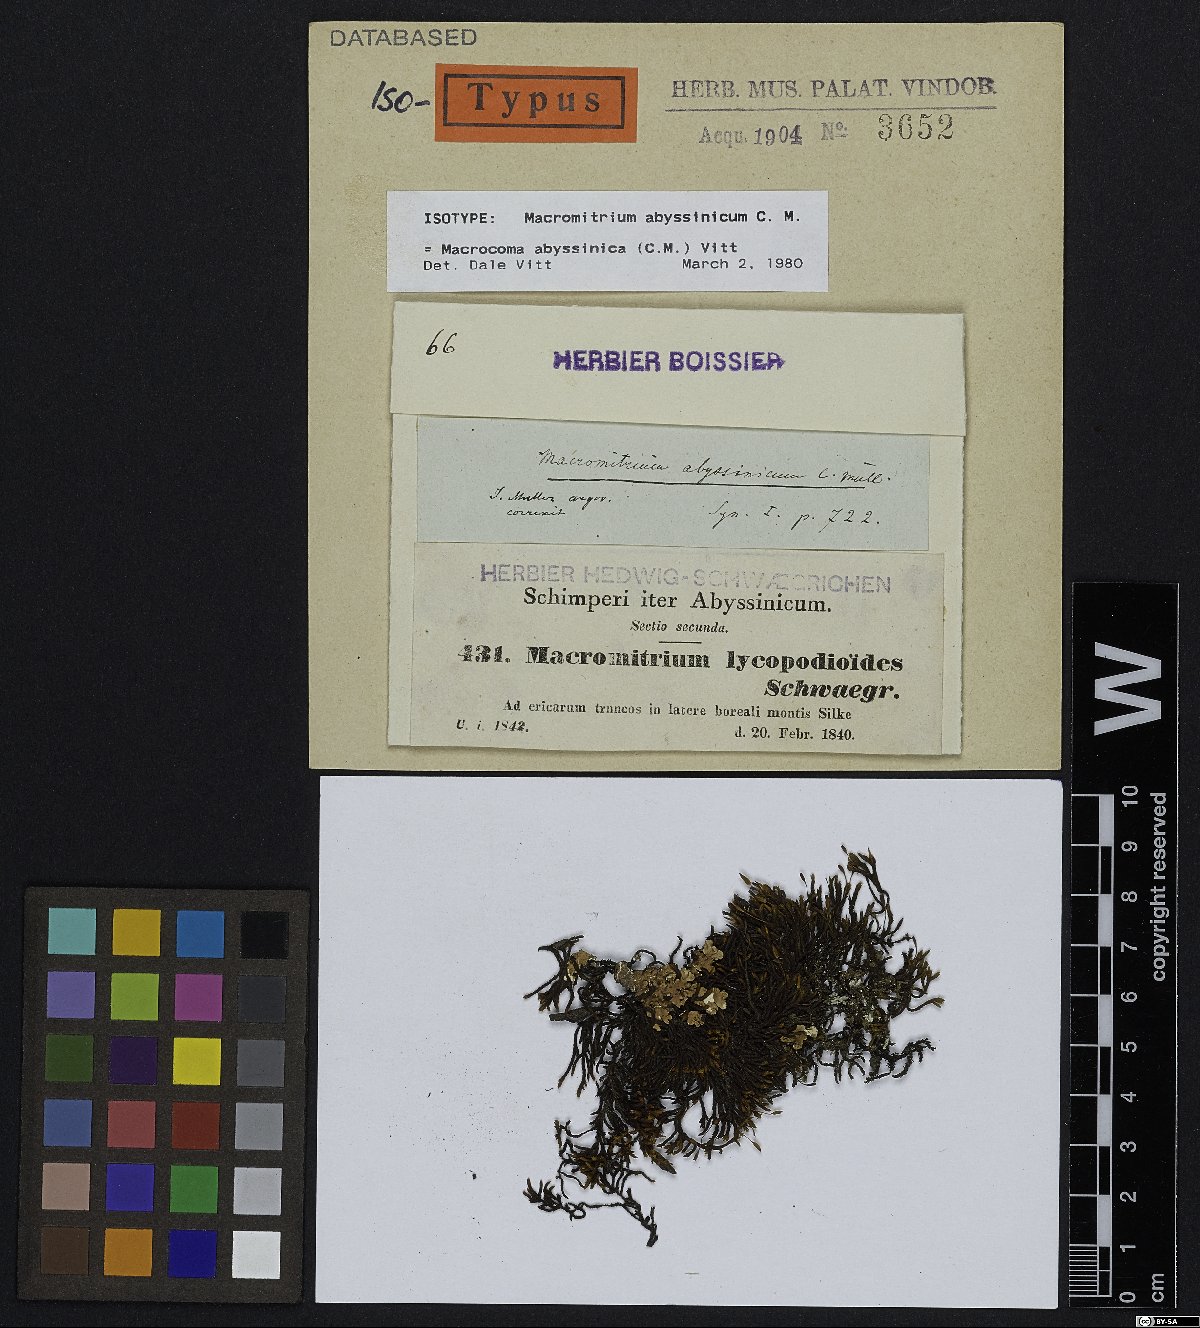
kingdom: Plantae
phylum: Bryophyta
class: Bryopsida
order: Orthotrichales
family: Orthotrichaceae
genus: Macrocoma
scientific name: Macrocoma abyssinica
